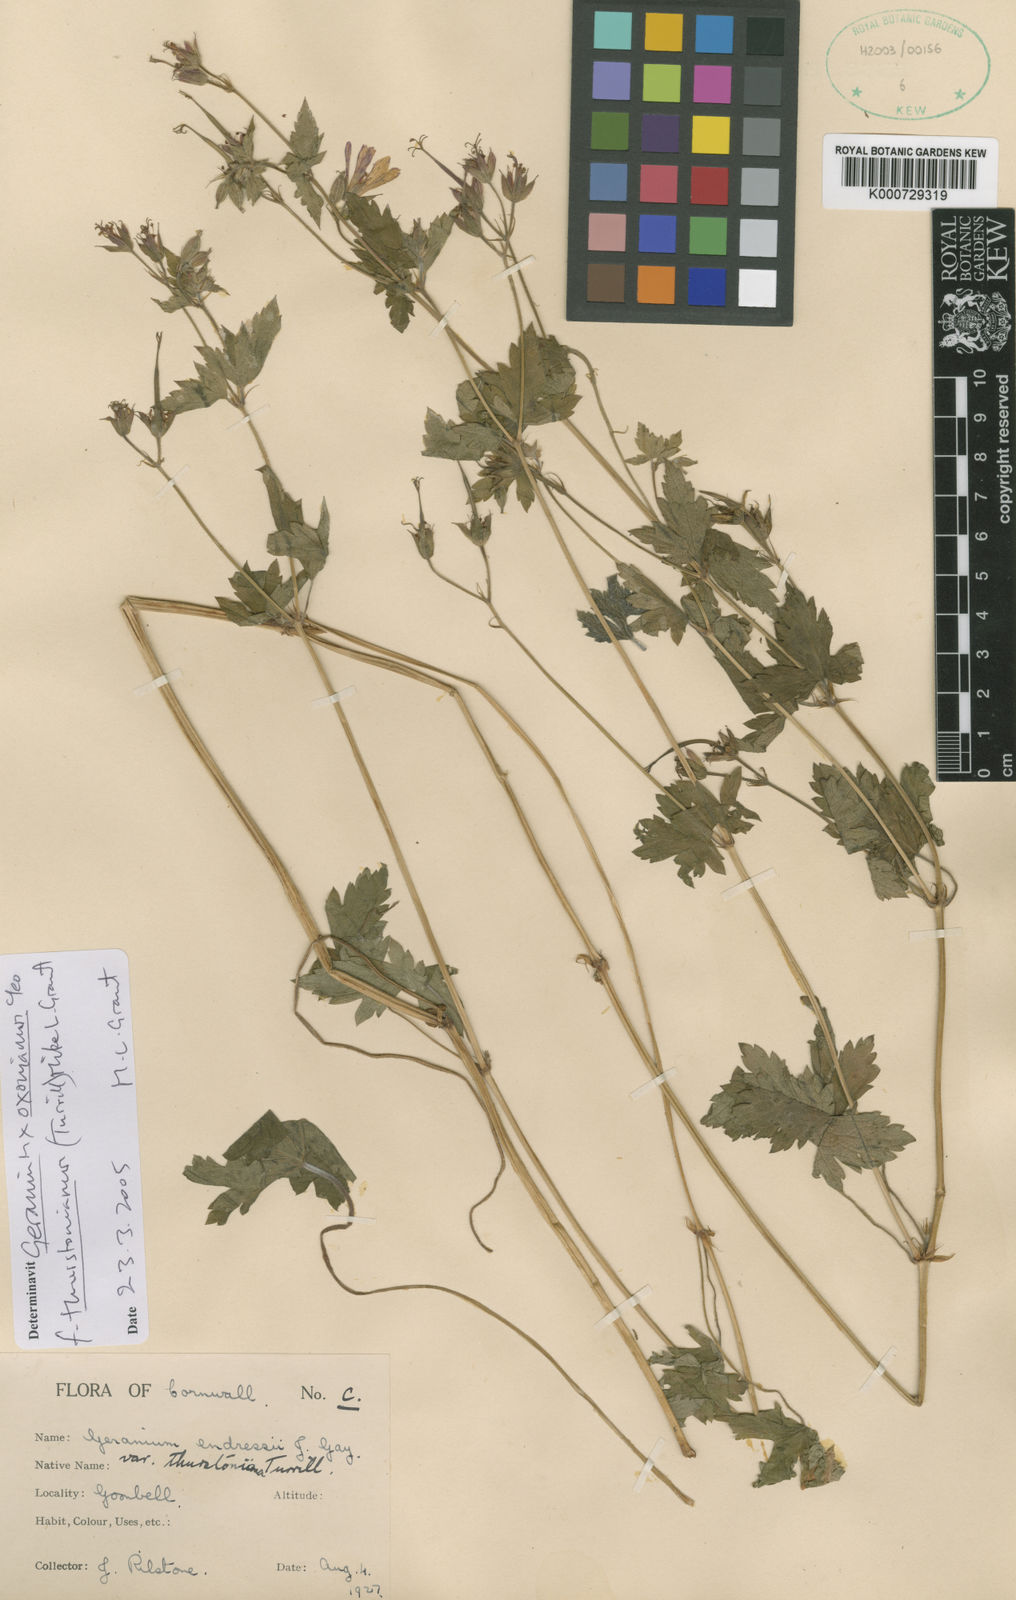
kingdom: Plantae
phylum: Tracheophyta
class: Magnoliopsida
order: Geraniales
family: Geraniaceae
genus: Geranium
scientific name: Geranium oxonianum
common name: Druce's crane's-bill
